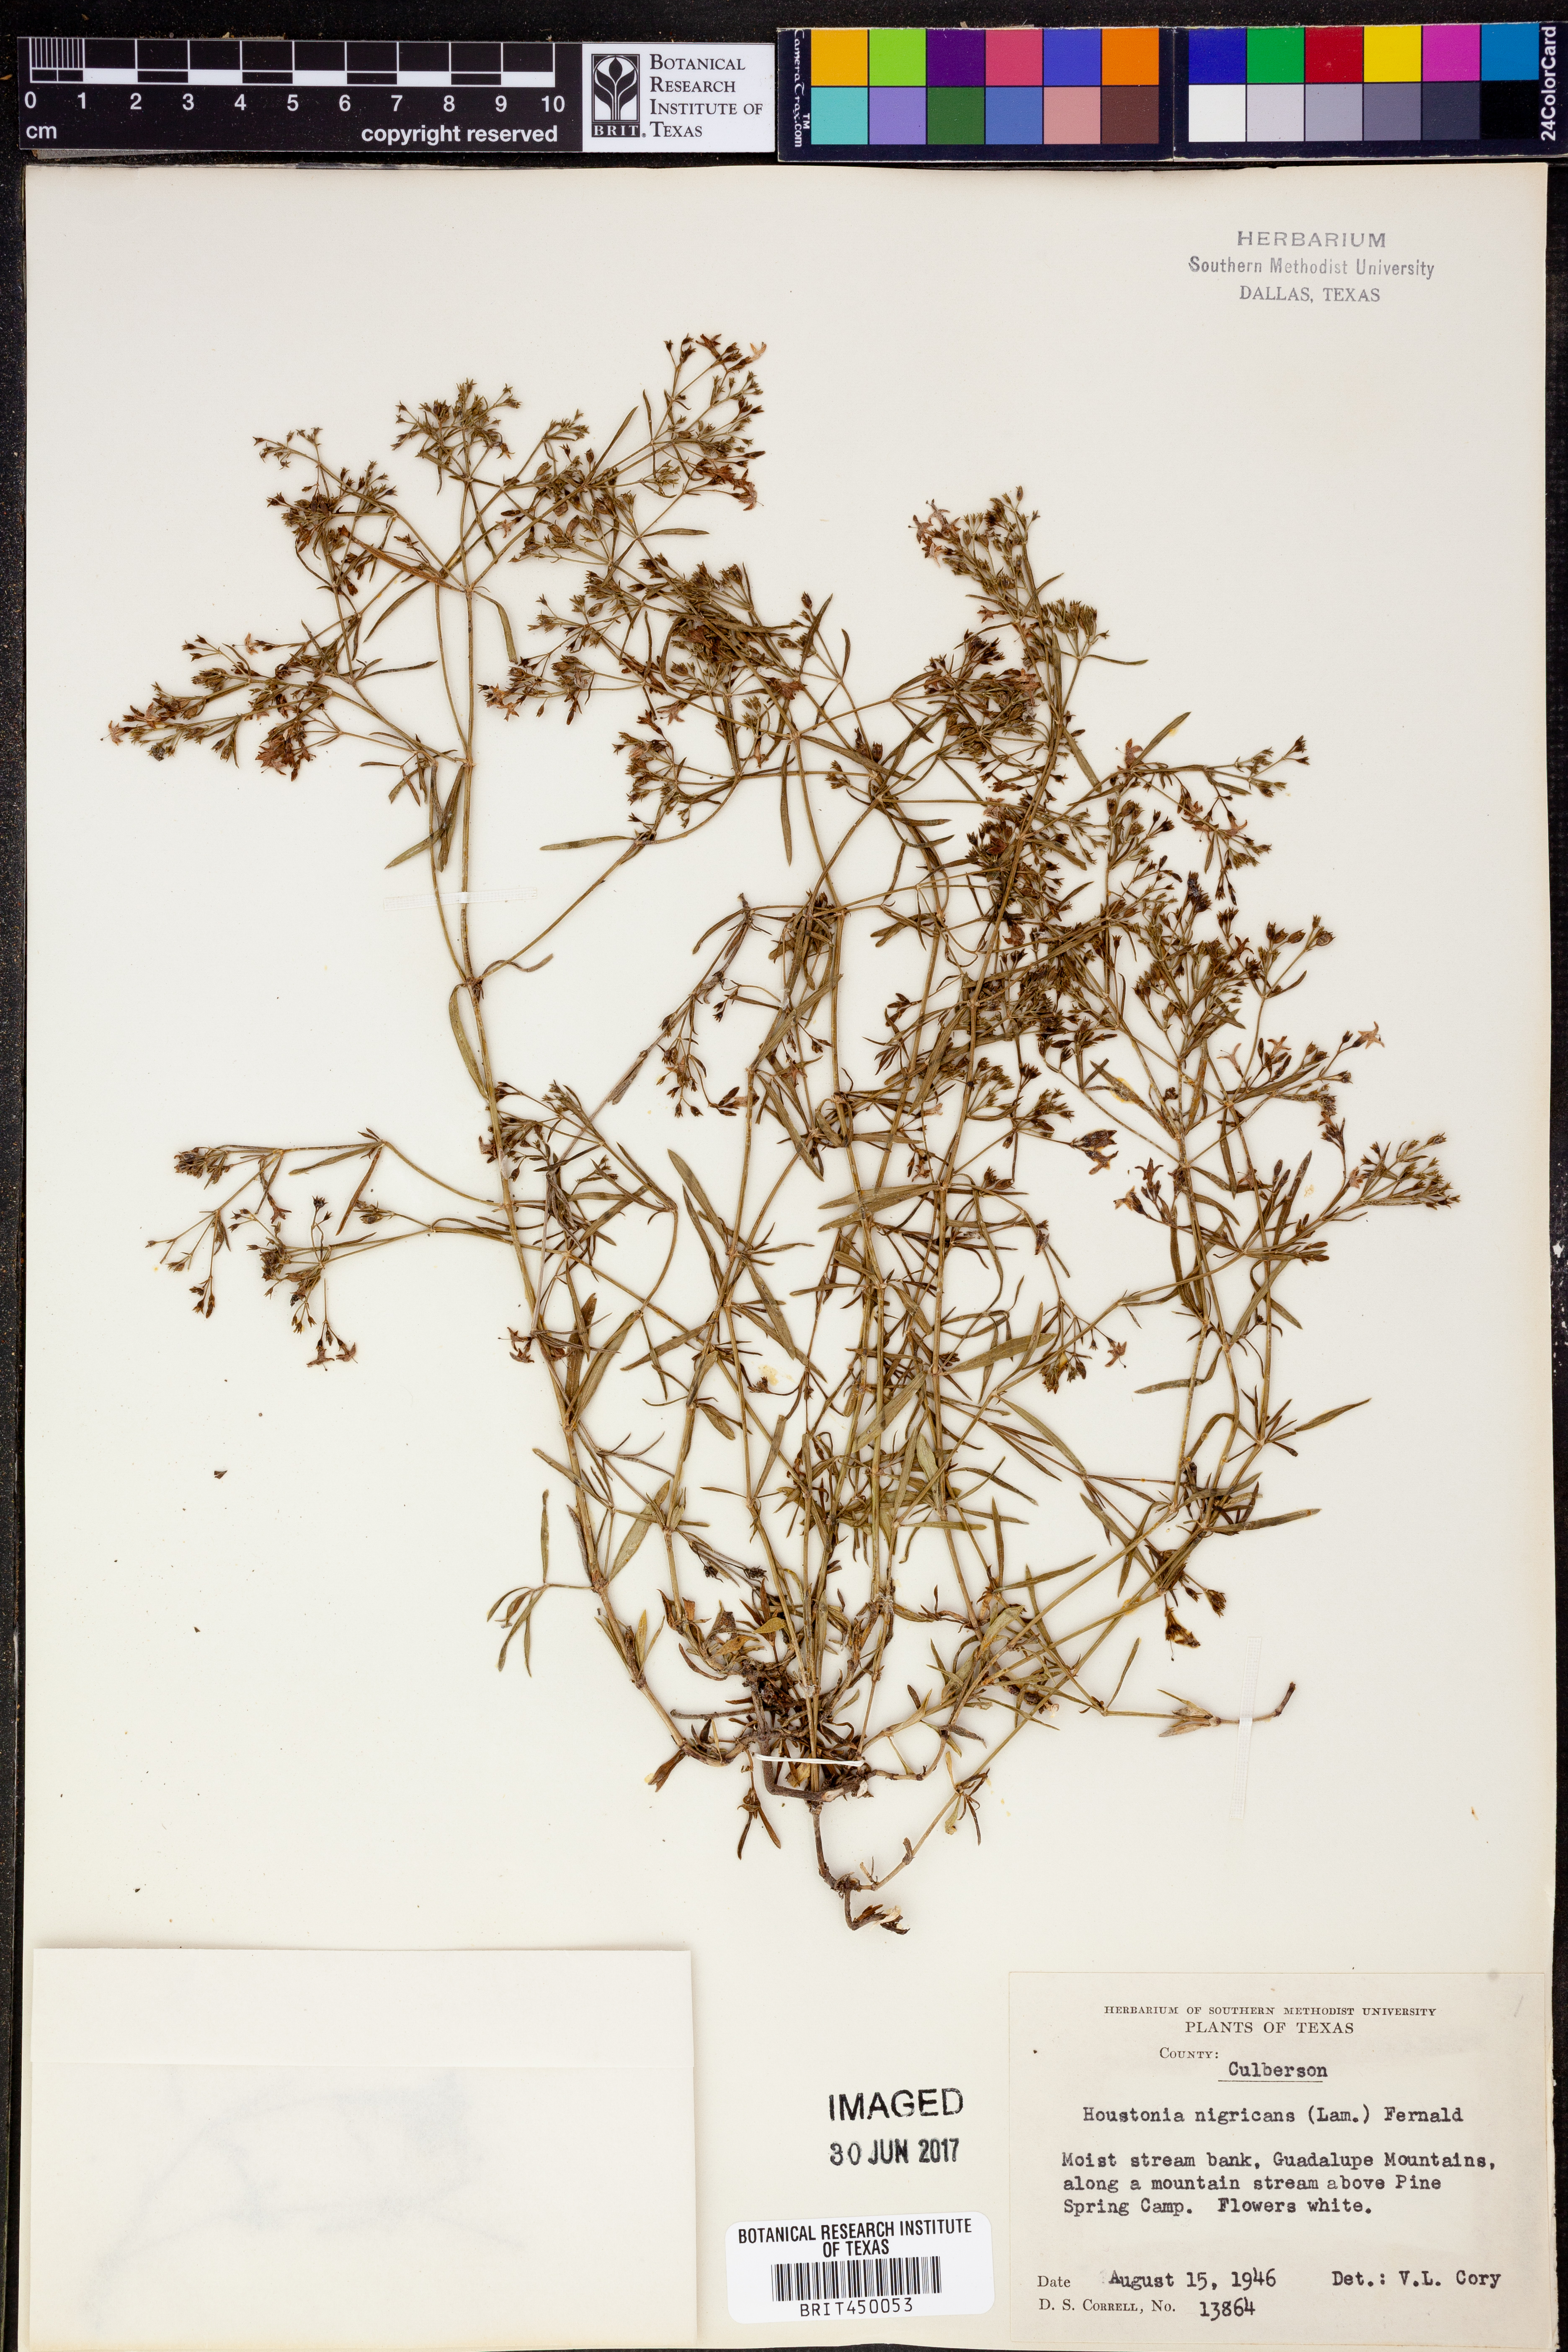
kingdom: Plantae
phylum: Tracheophyta
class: Magnoliopsida
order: Gentianales
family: Rubiaceae
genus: Stenaria
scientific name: Stenaria nigricans
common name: Diamondflowers
